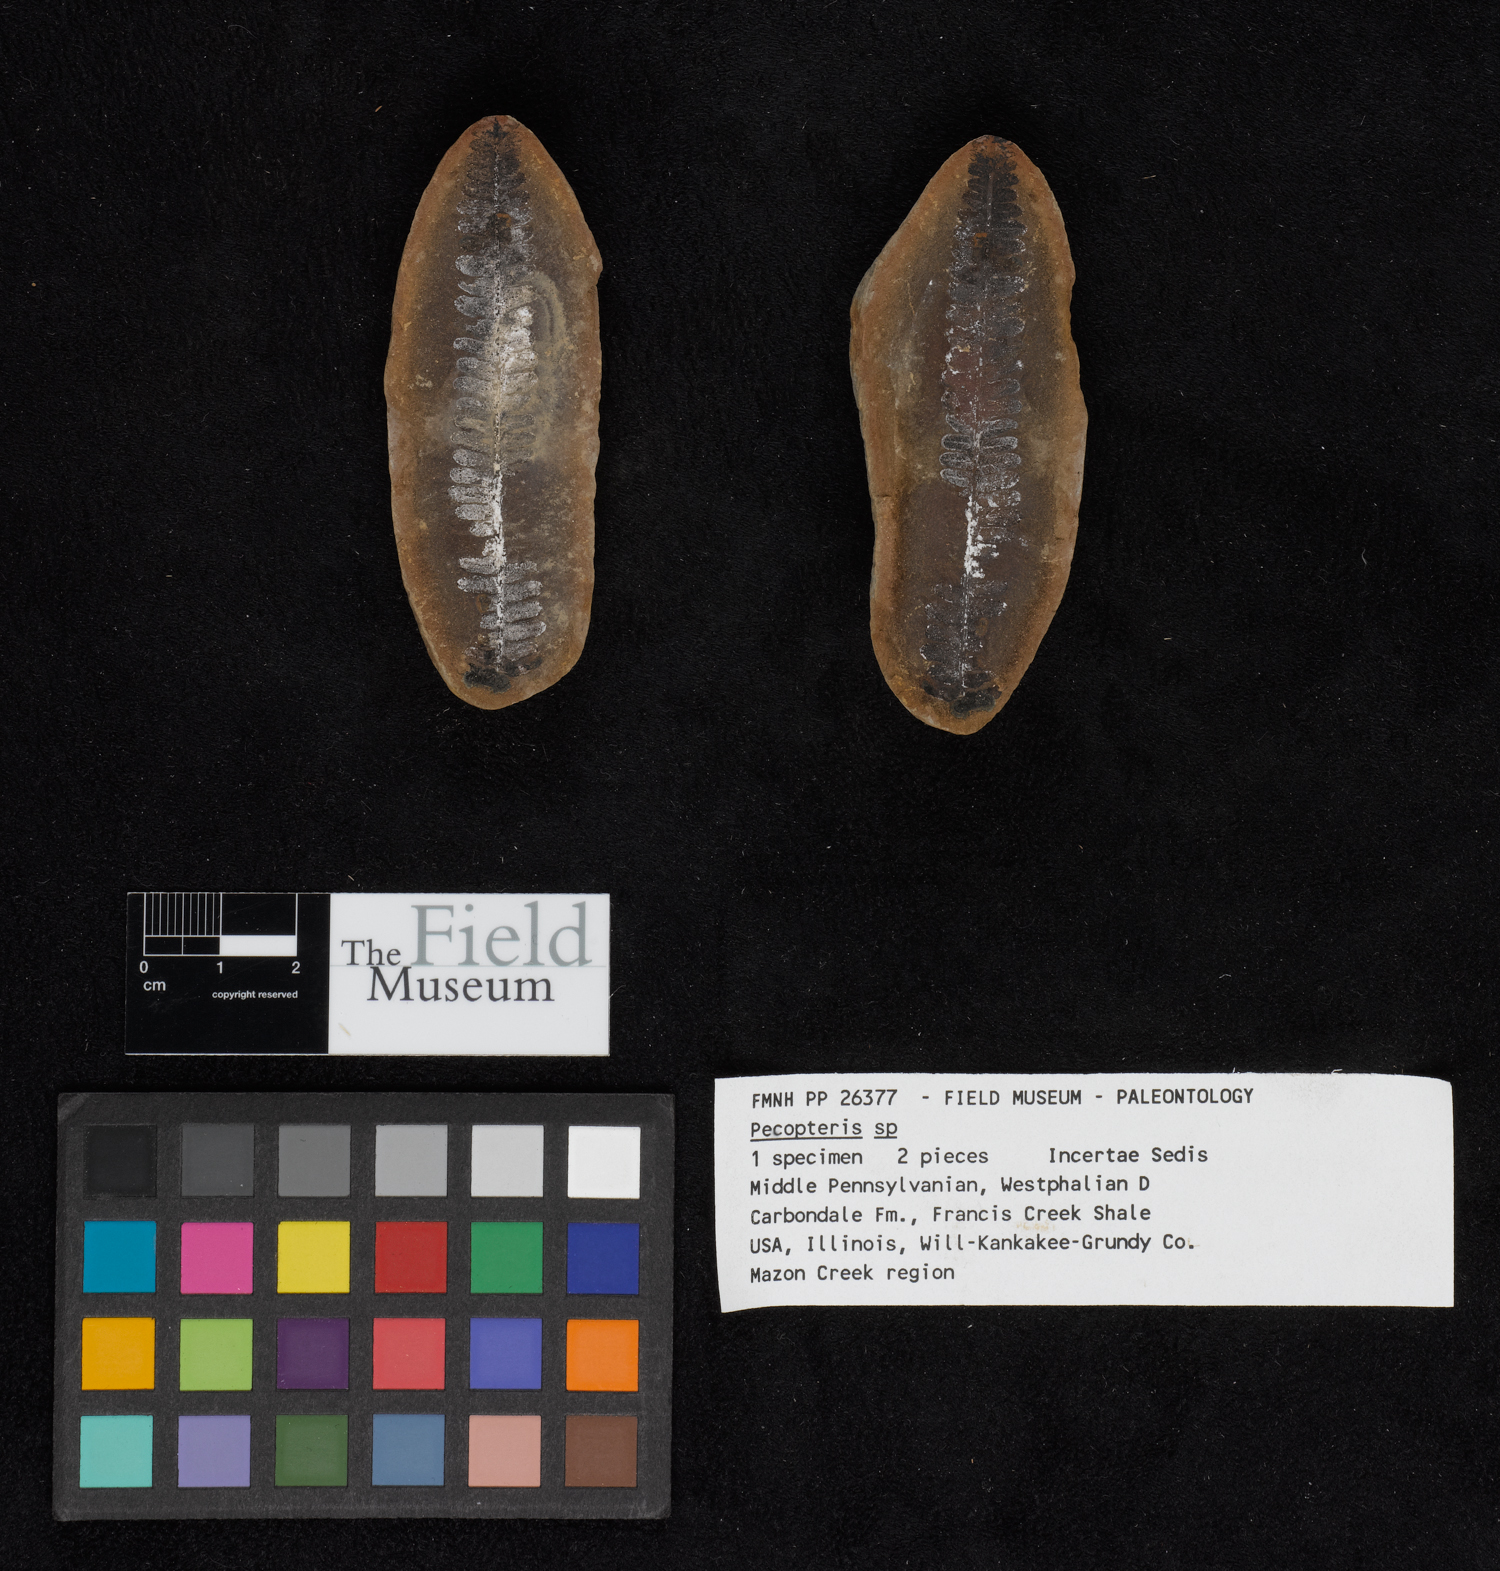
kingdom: Plantae
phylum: Tracheophyta
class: Polypodiopsida
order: Marattiales
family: Asterothecaceae
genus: Pecopteris
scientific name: Pecopteris
